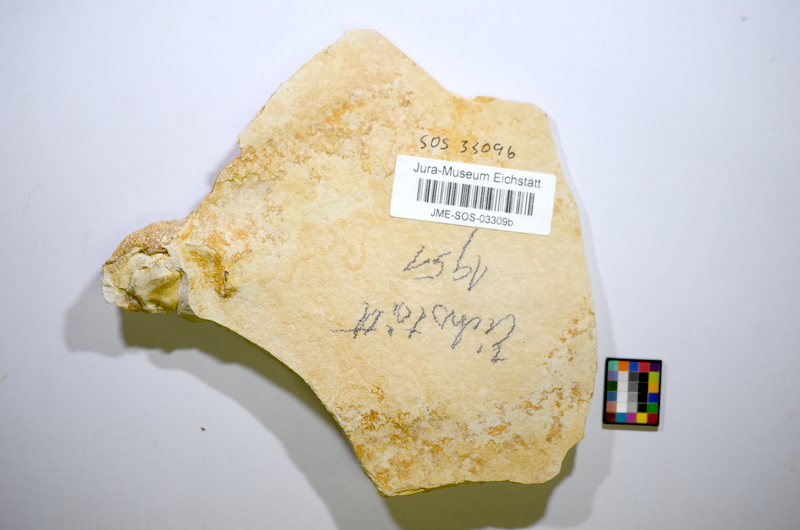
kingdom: Animalia
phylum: Chordata
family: Mesturidae
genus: Arduafrons
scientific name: Arduafrons prominoris
